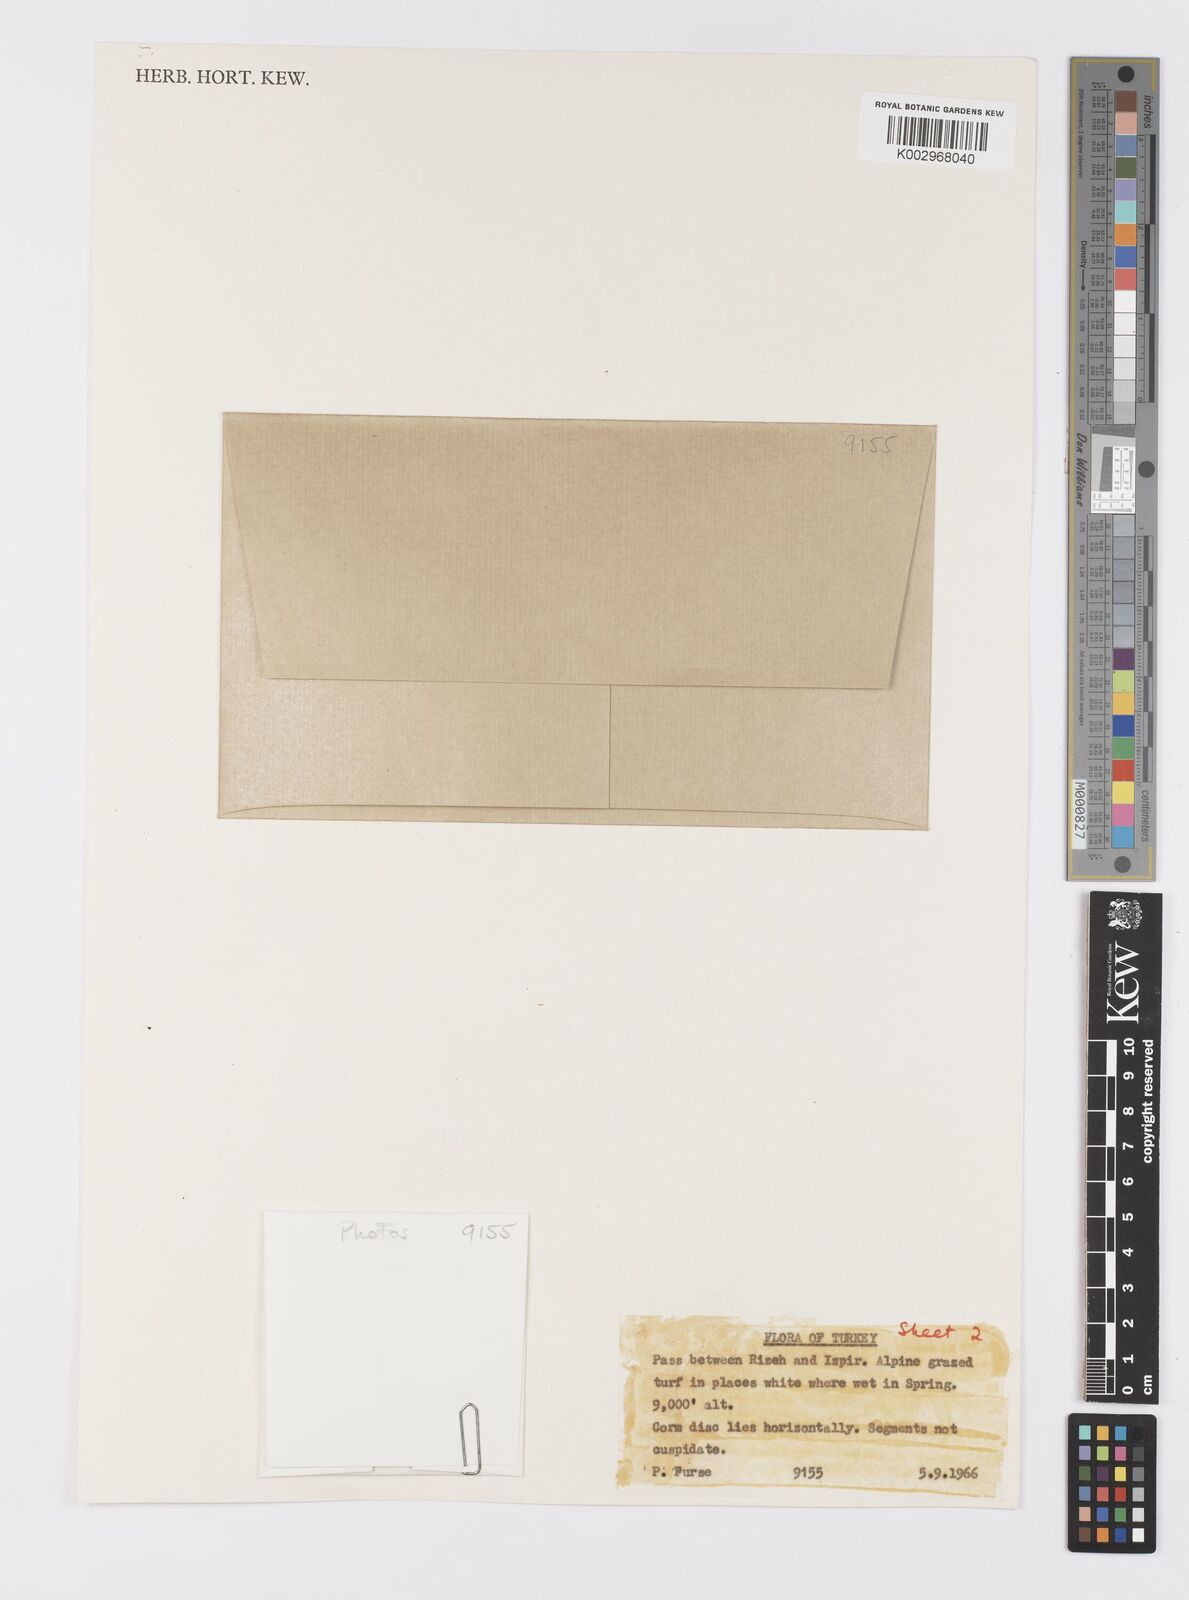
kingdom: Plantae
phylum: Tracheophyta
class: Liliopsida
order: Asparagales
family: Iridaceae
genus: Crocus
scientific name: Crocus lazicus
